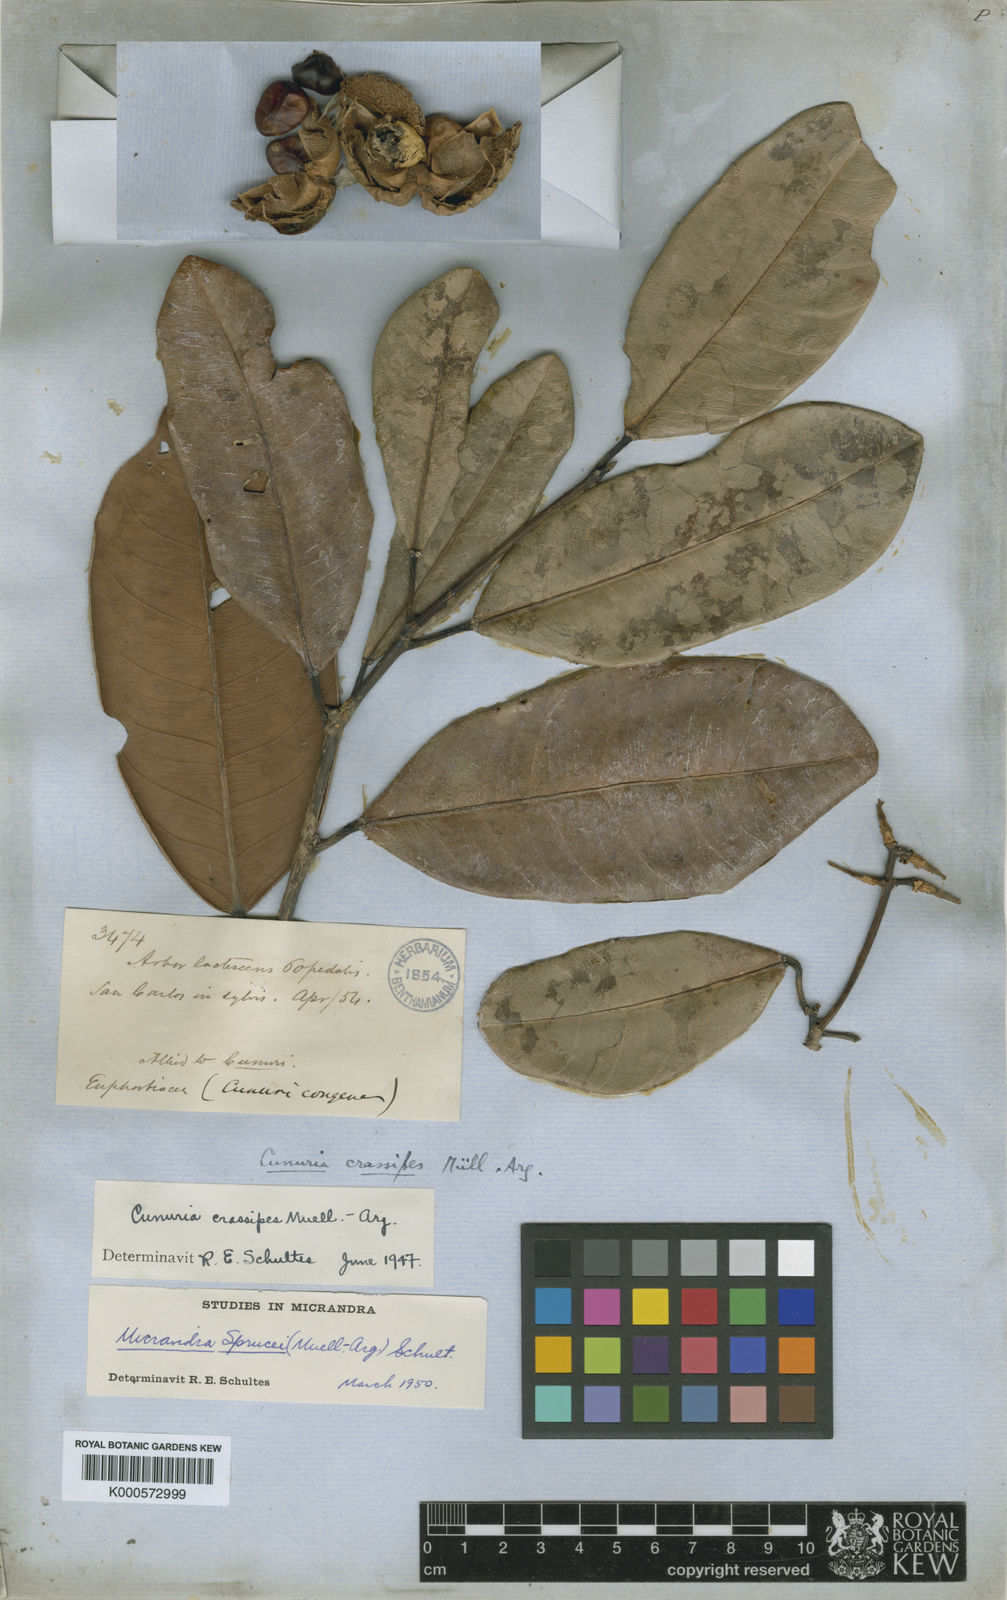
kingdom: Plantae
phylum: Tracheophyta
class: Magnoliopsida
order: Malpighiales
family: Euphorbiaceae
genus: Micrandra
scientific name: Micrandra
